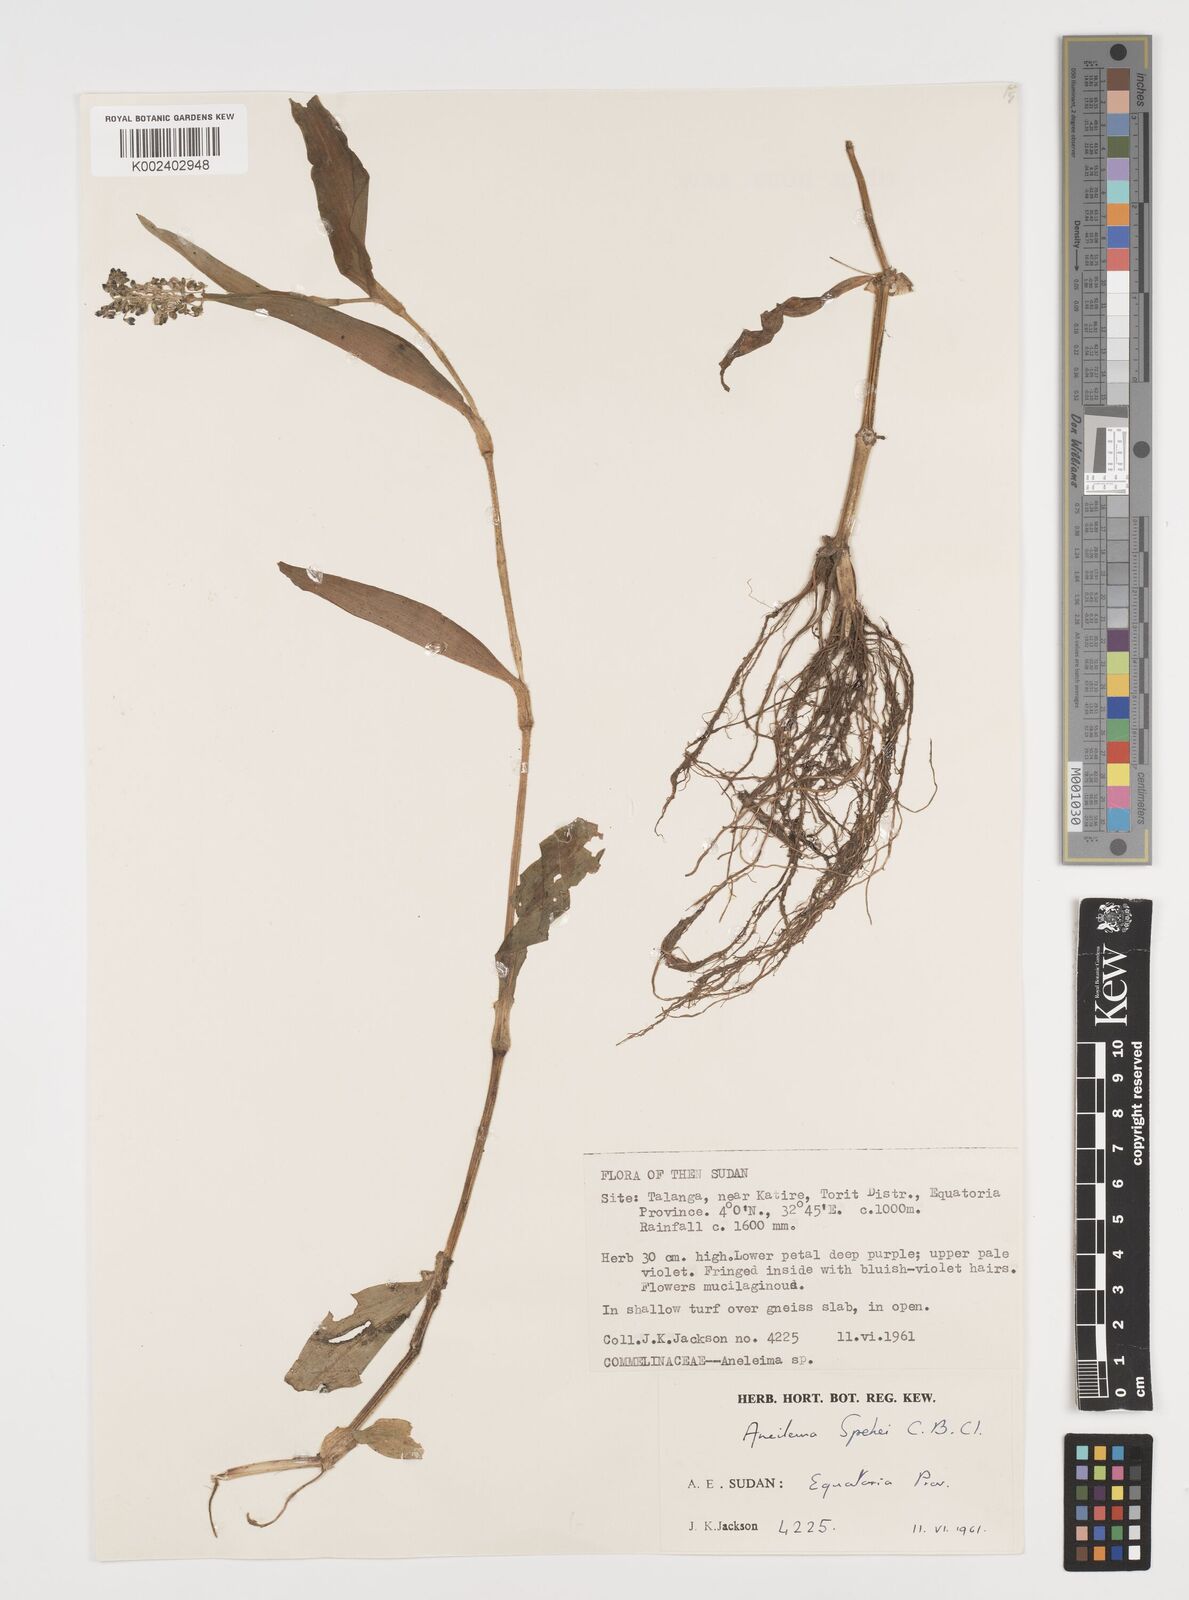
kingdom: Plantae
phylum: Tracheophyta
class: Liliopsida
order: Commelinales
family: Commelinaceae
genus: Aneilema
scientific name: Aneilema spekei
